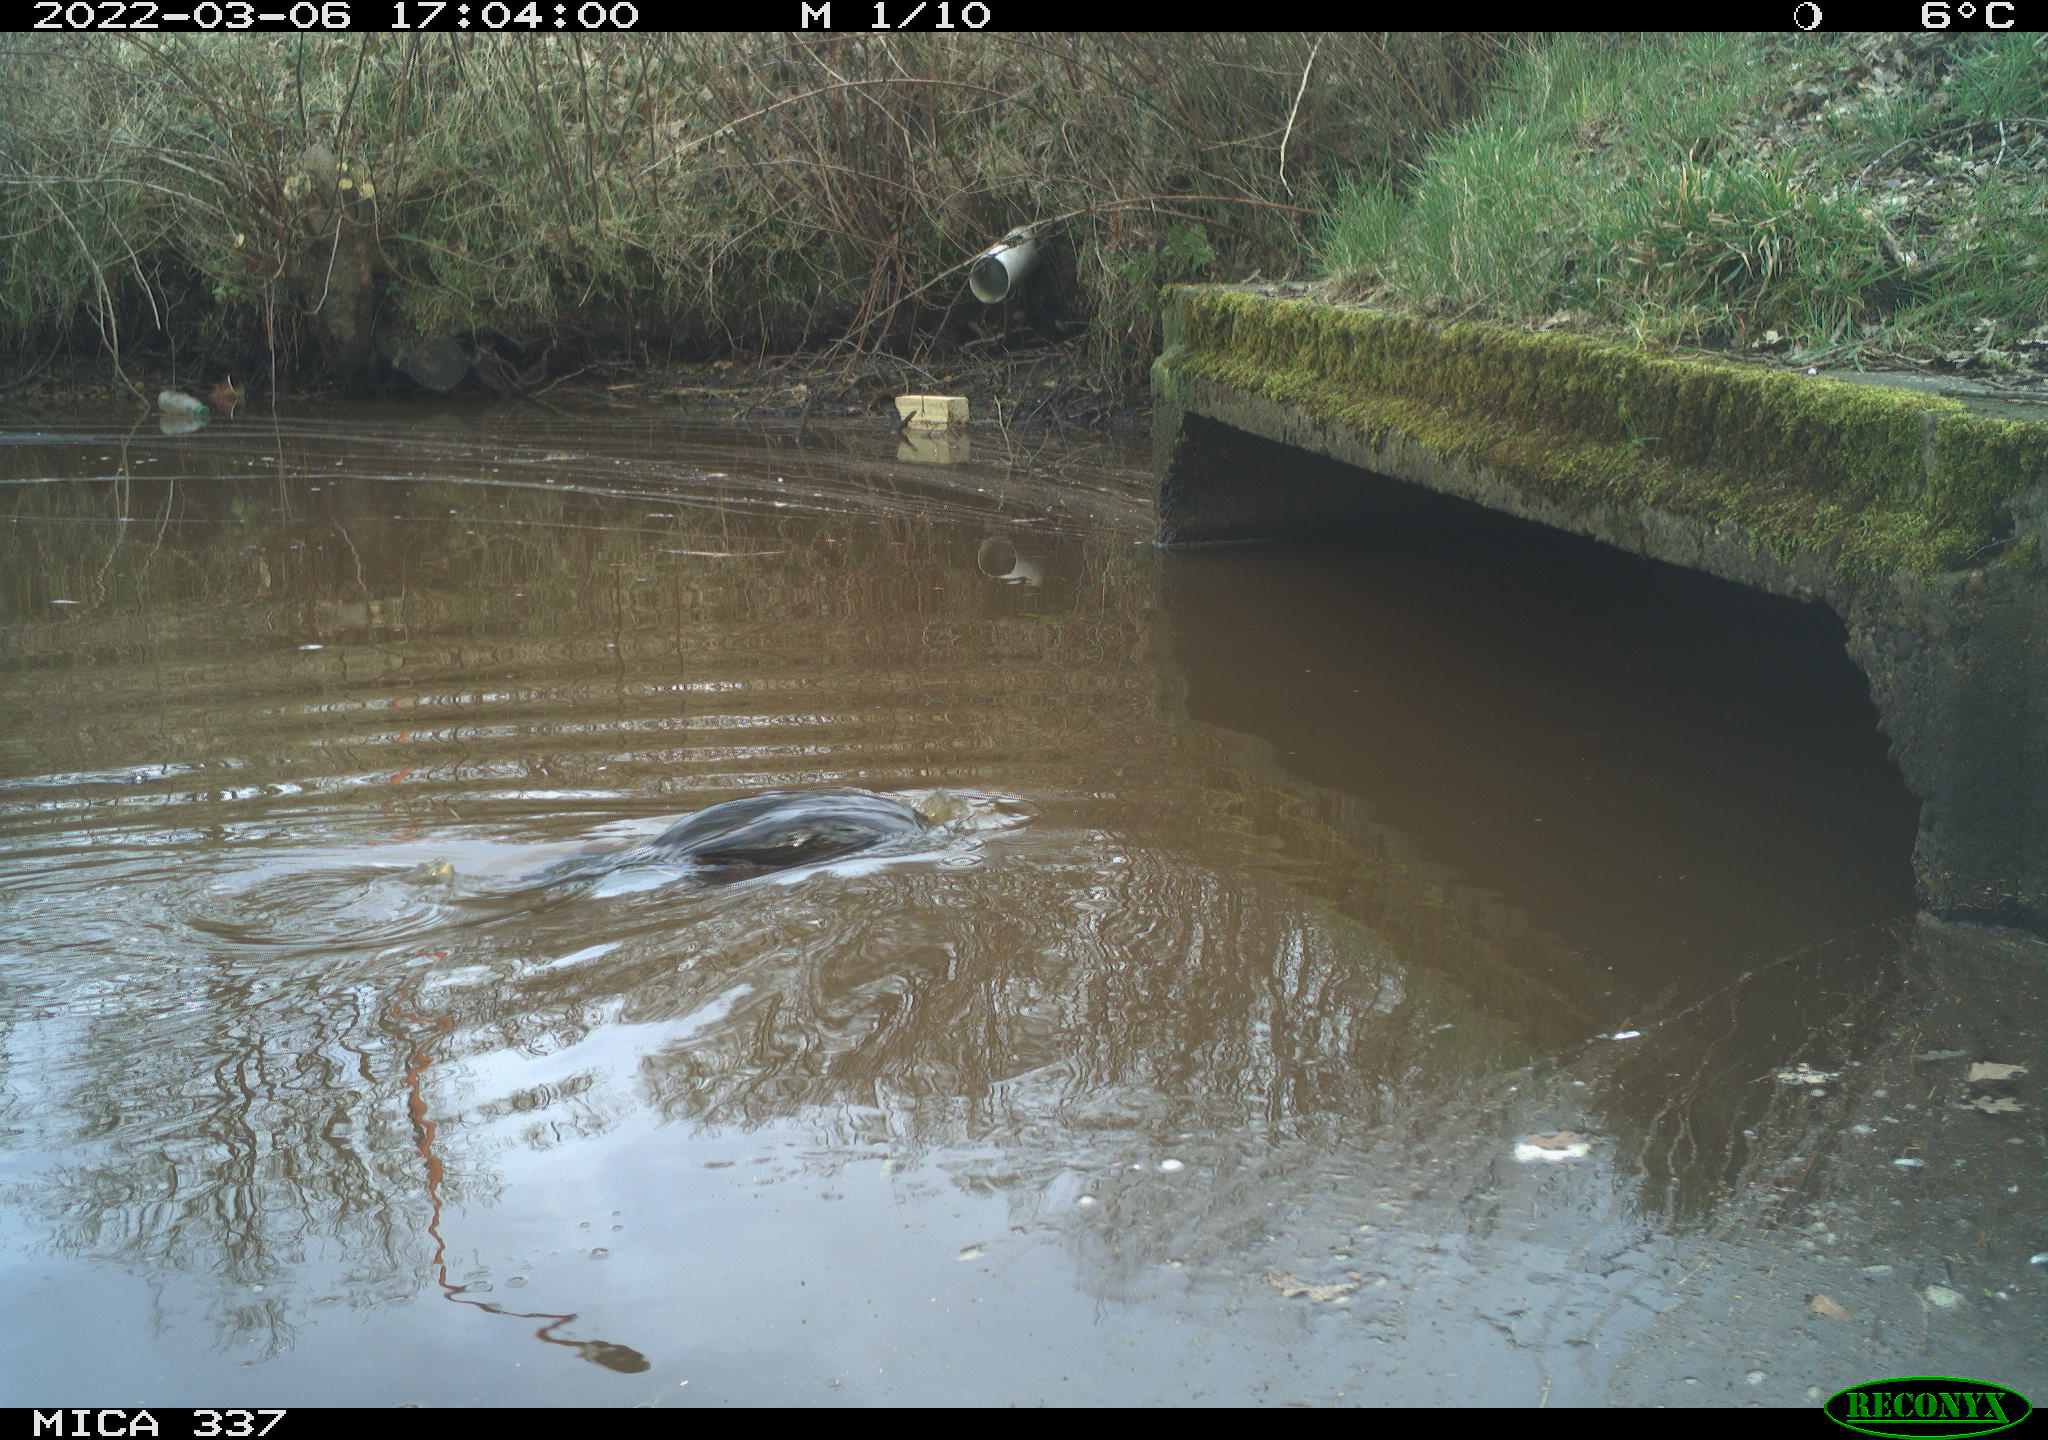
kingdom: Animalia
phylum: Chordata
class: Aves
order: Suliformes
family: Phalacrocoracidae
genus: Phalacrocorax
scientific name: Phalacrocorax carbo
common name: Great cormorant
